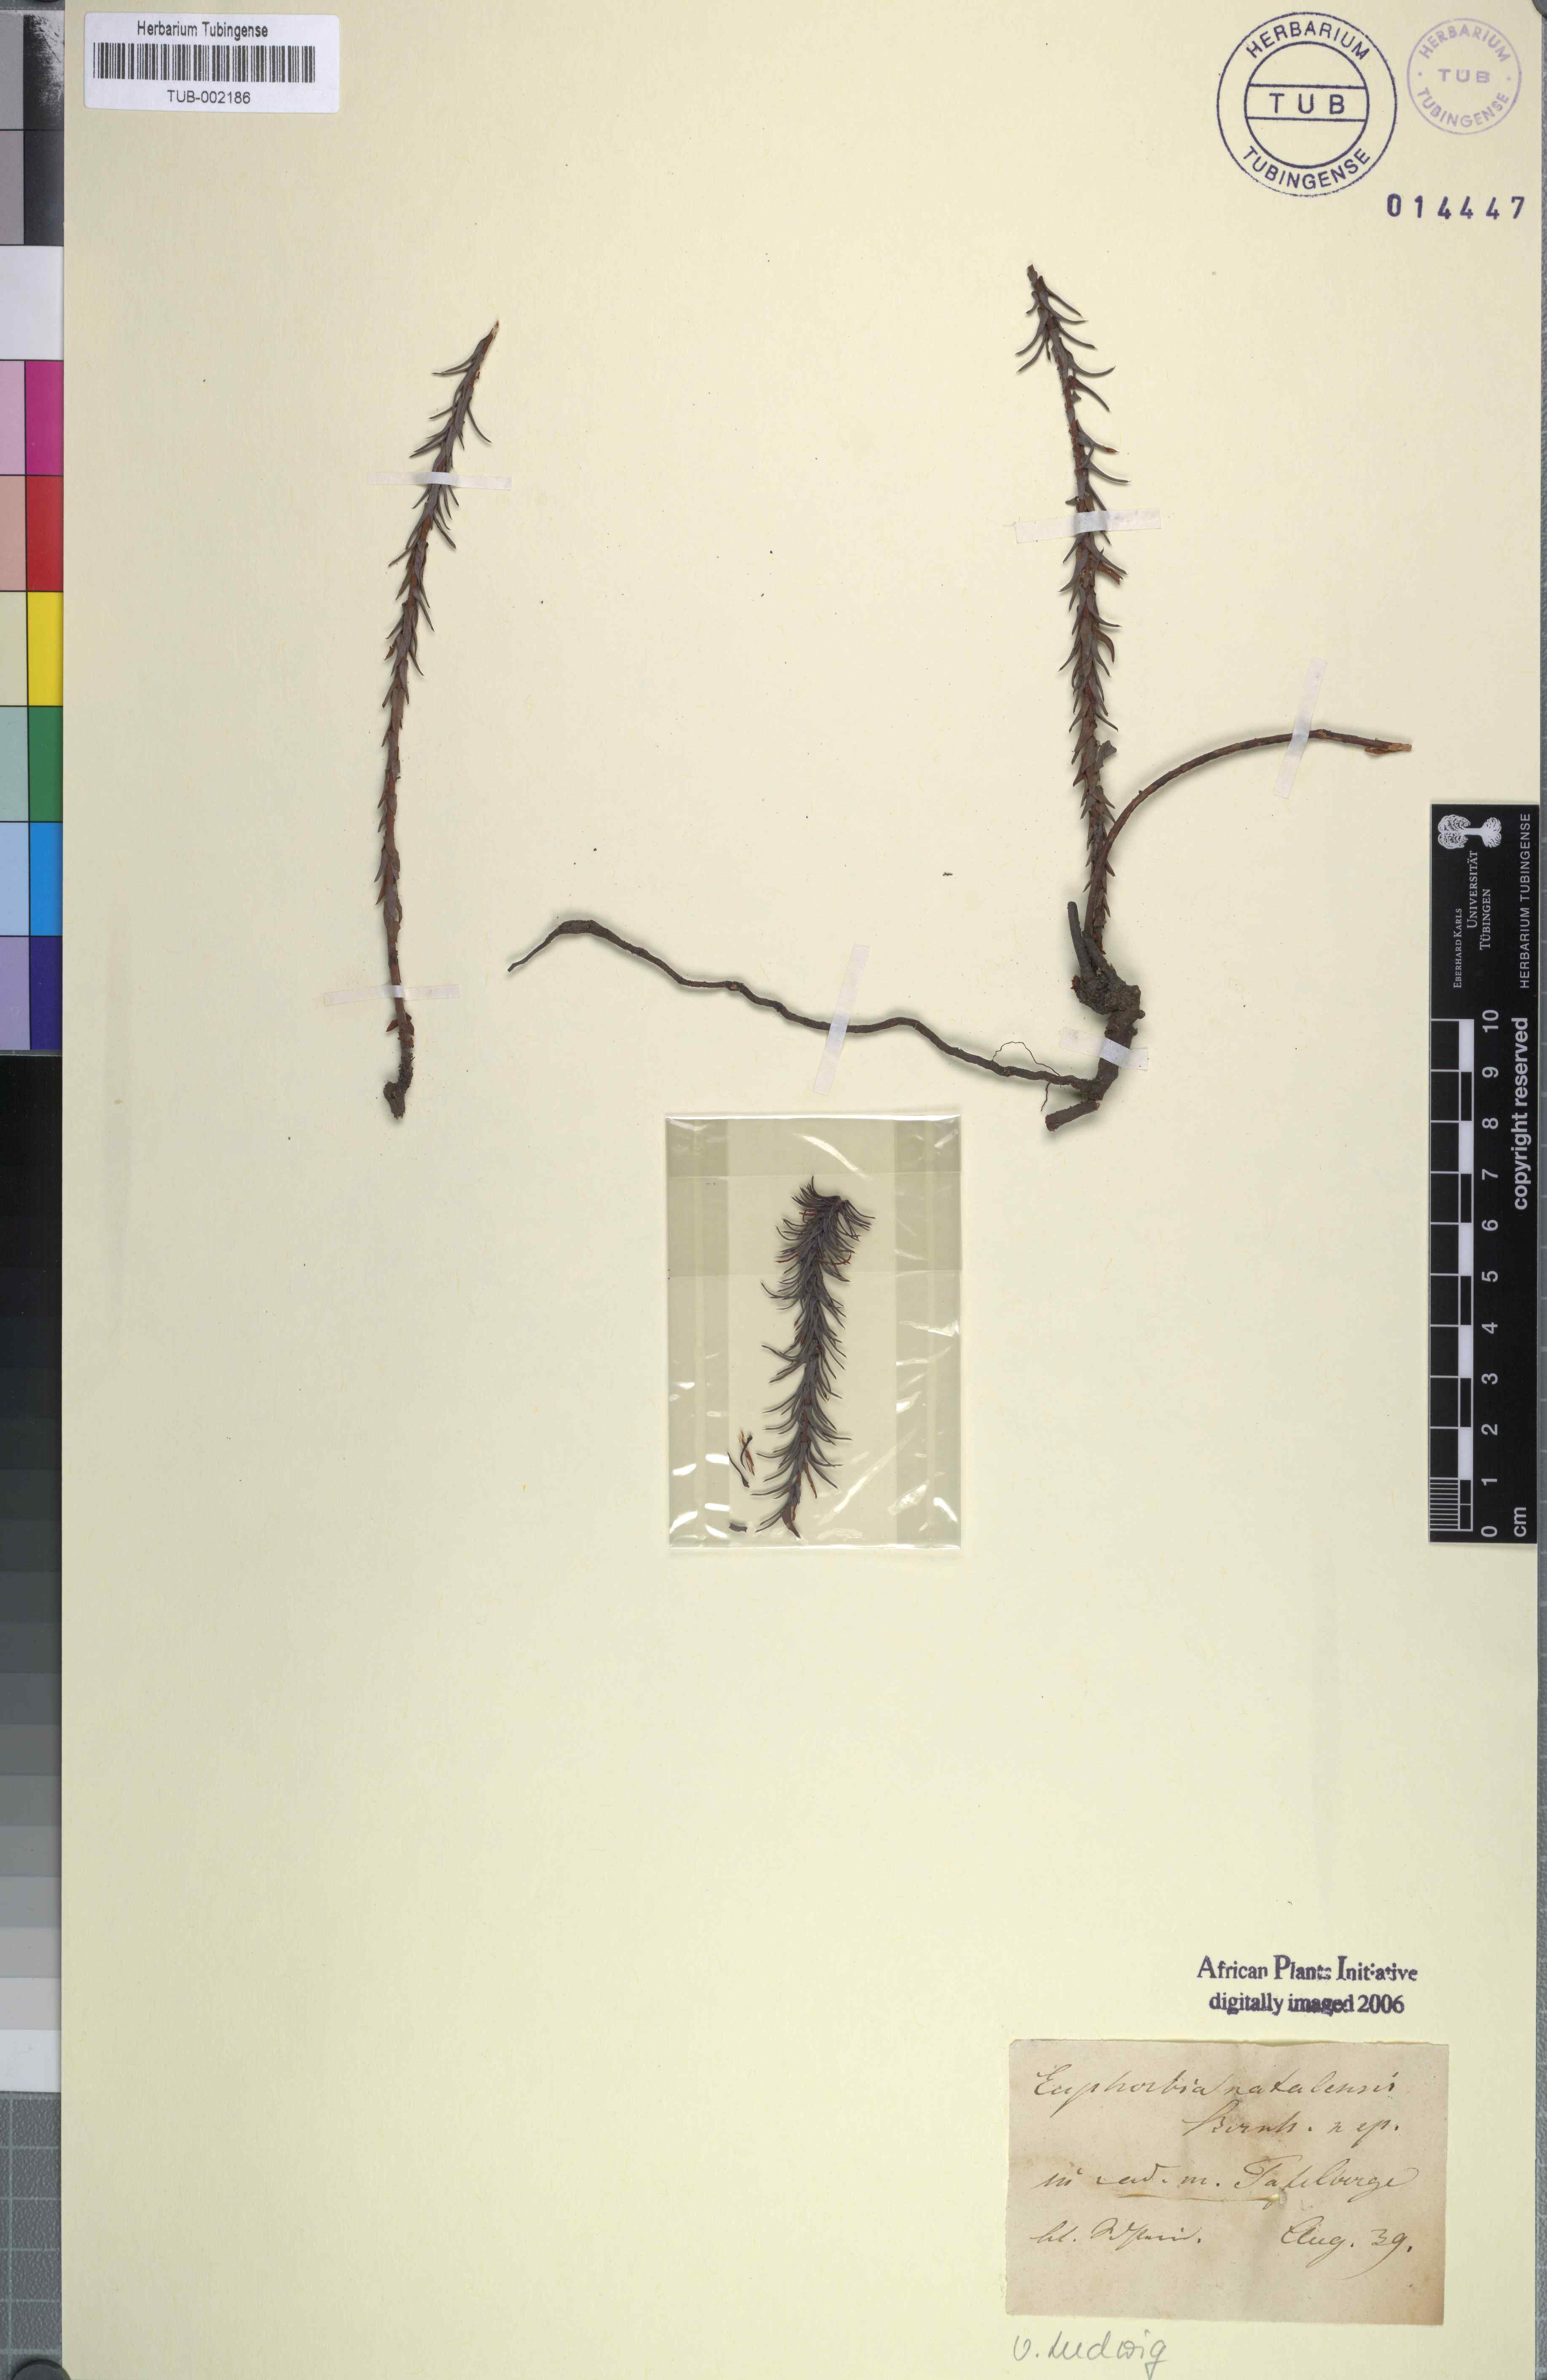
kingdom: Plantae
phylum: Tracheophyta
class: Magnoliopsida
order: Malpighiales
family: Euphorbiaceae
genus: Euphorbia
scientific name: Euphorbia natalensis
